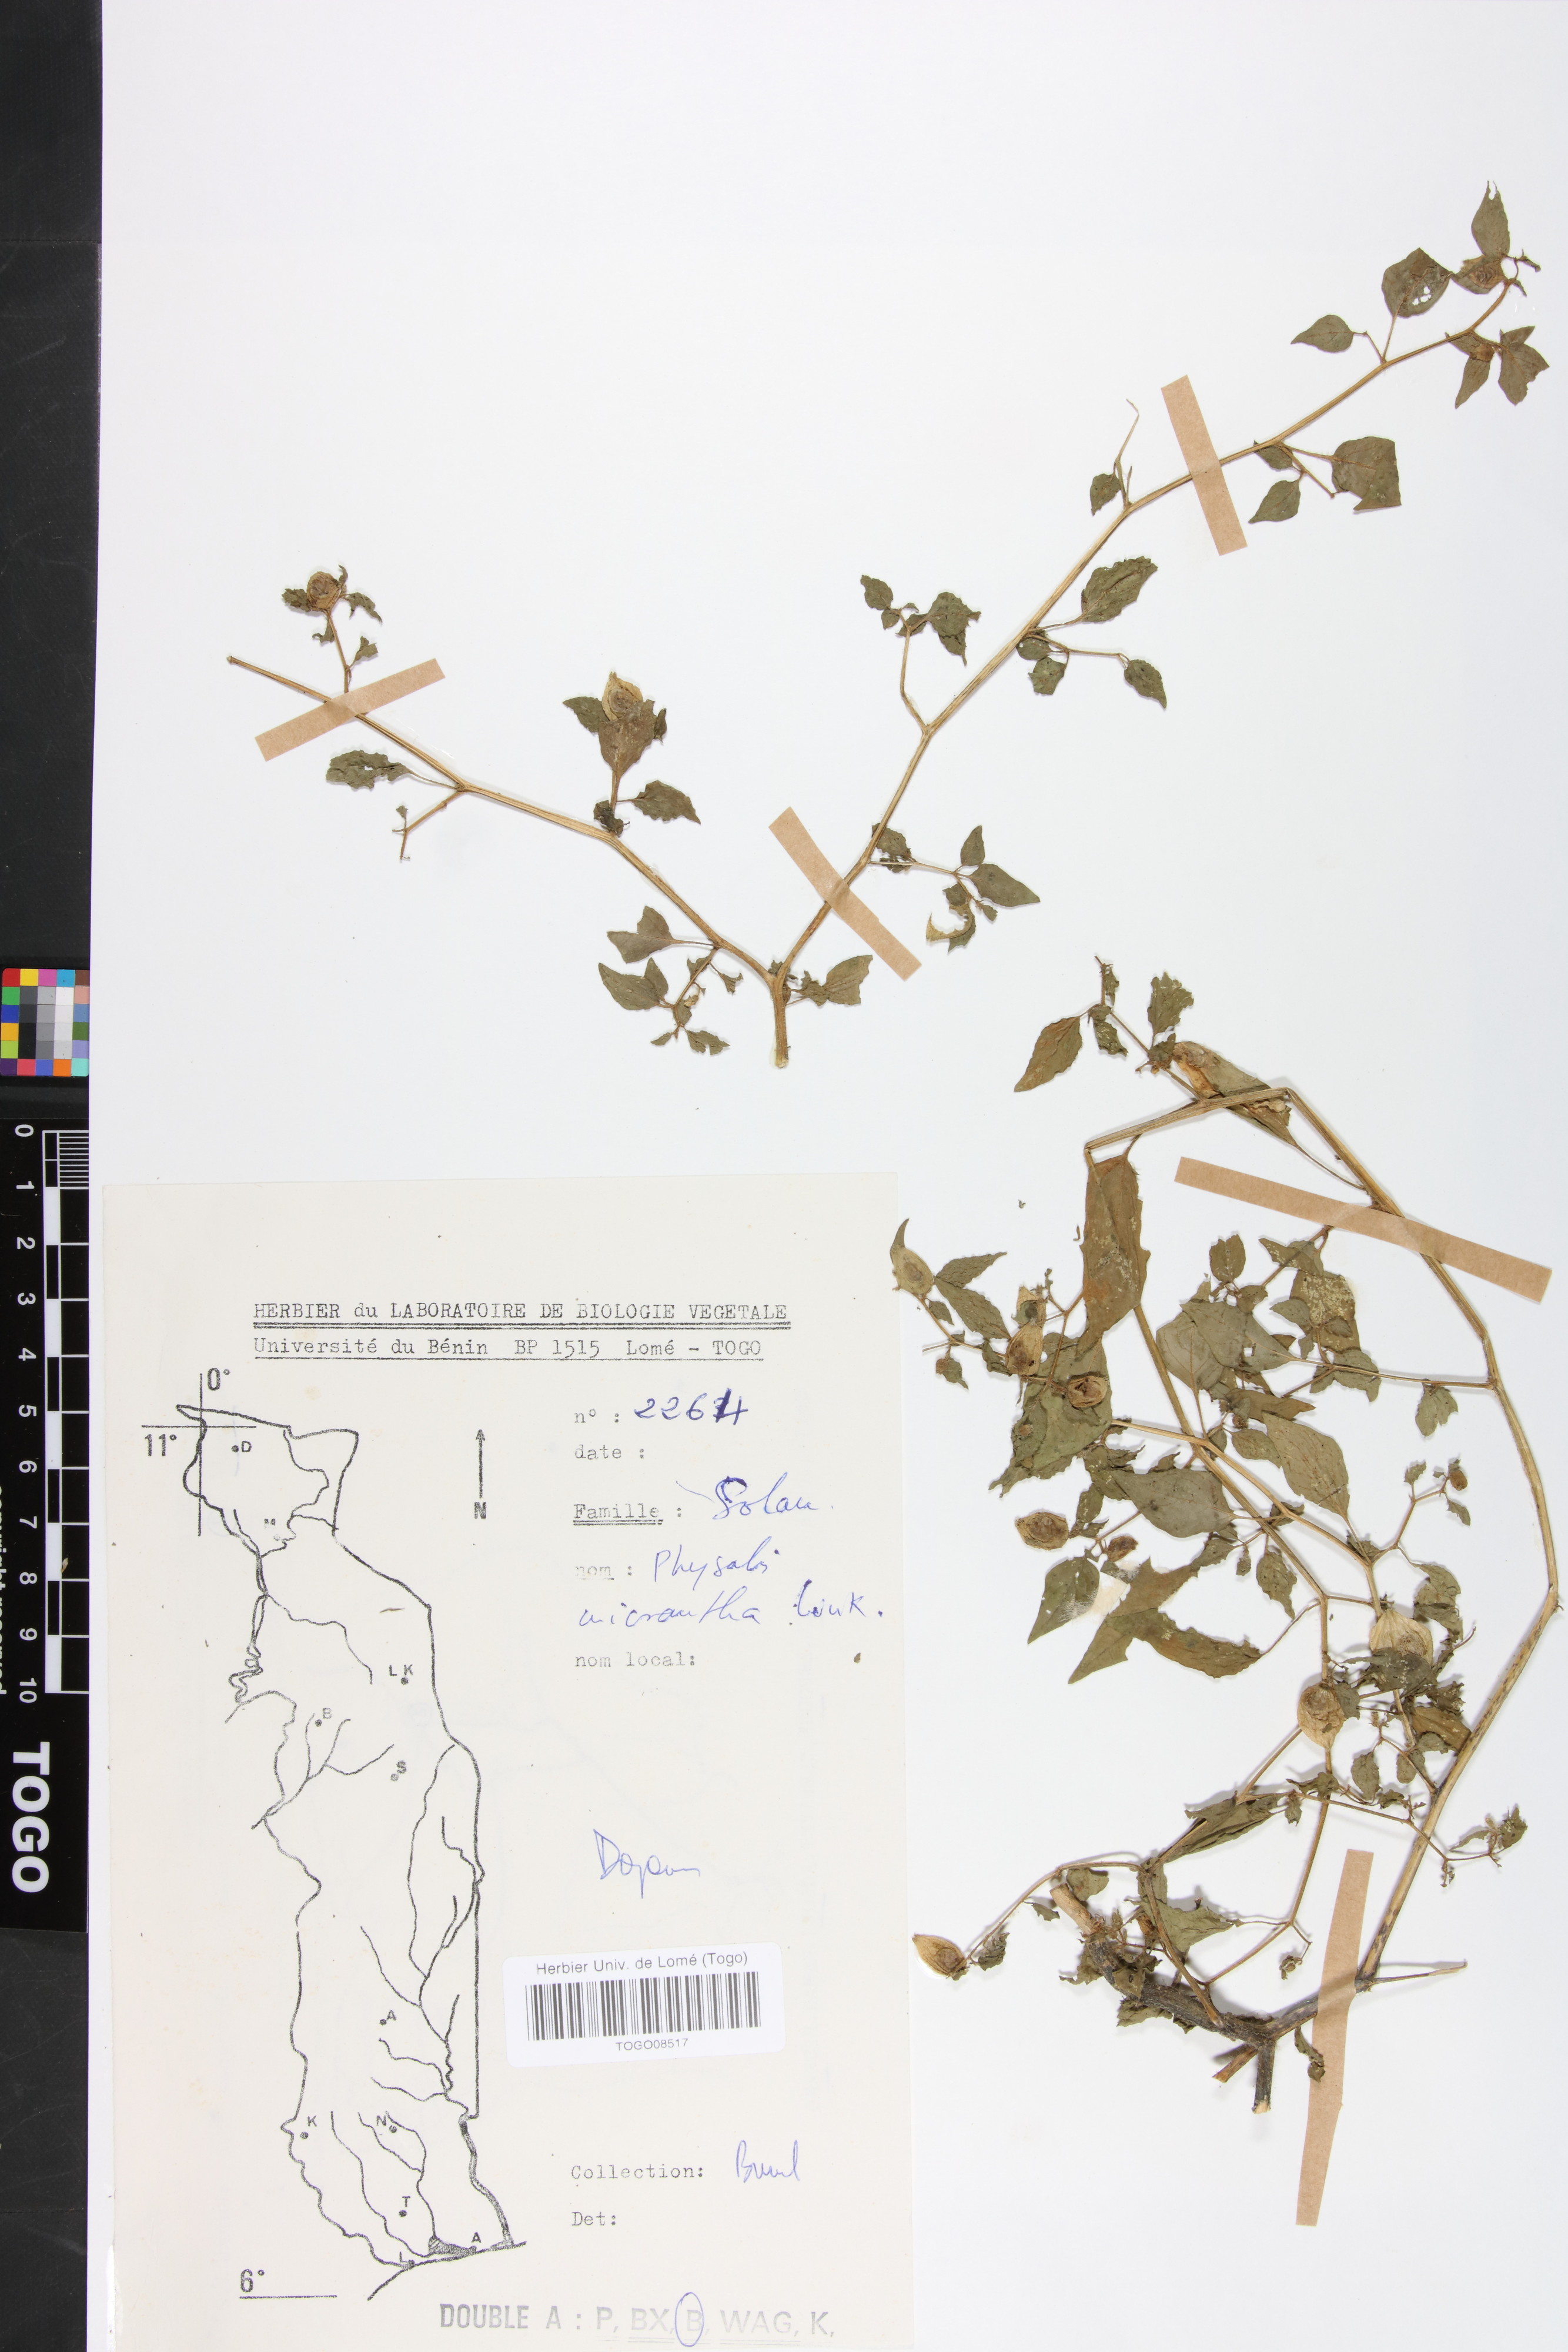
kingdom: Plantae
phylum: Tracheophyta
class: Magnoliopsida
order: Solanales
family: Solanaceae
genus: Physalis
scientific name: Physalis lagascae
